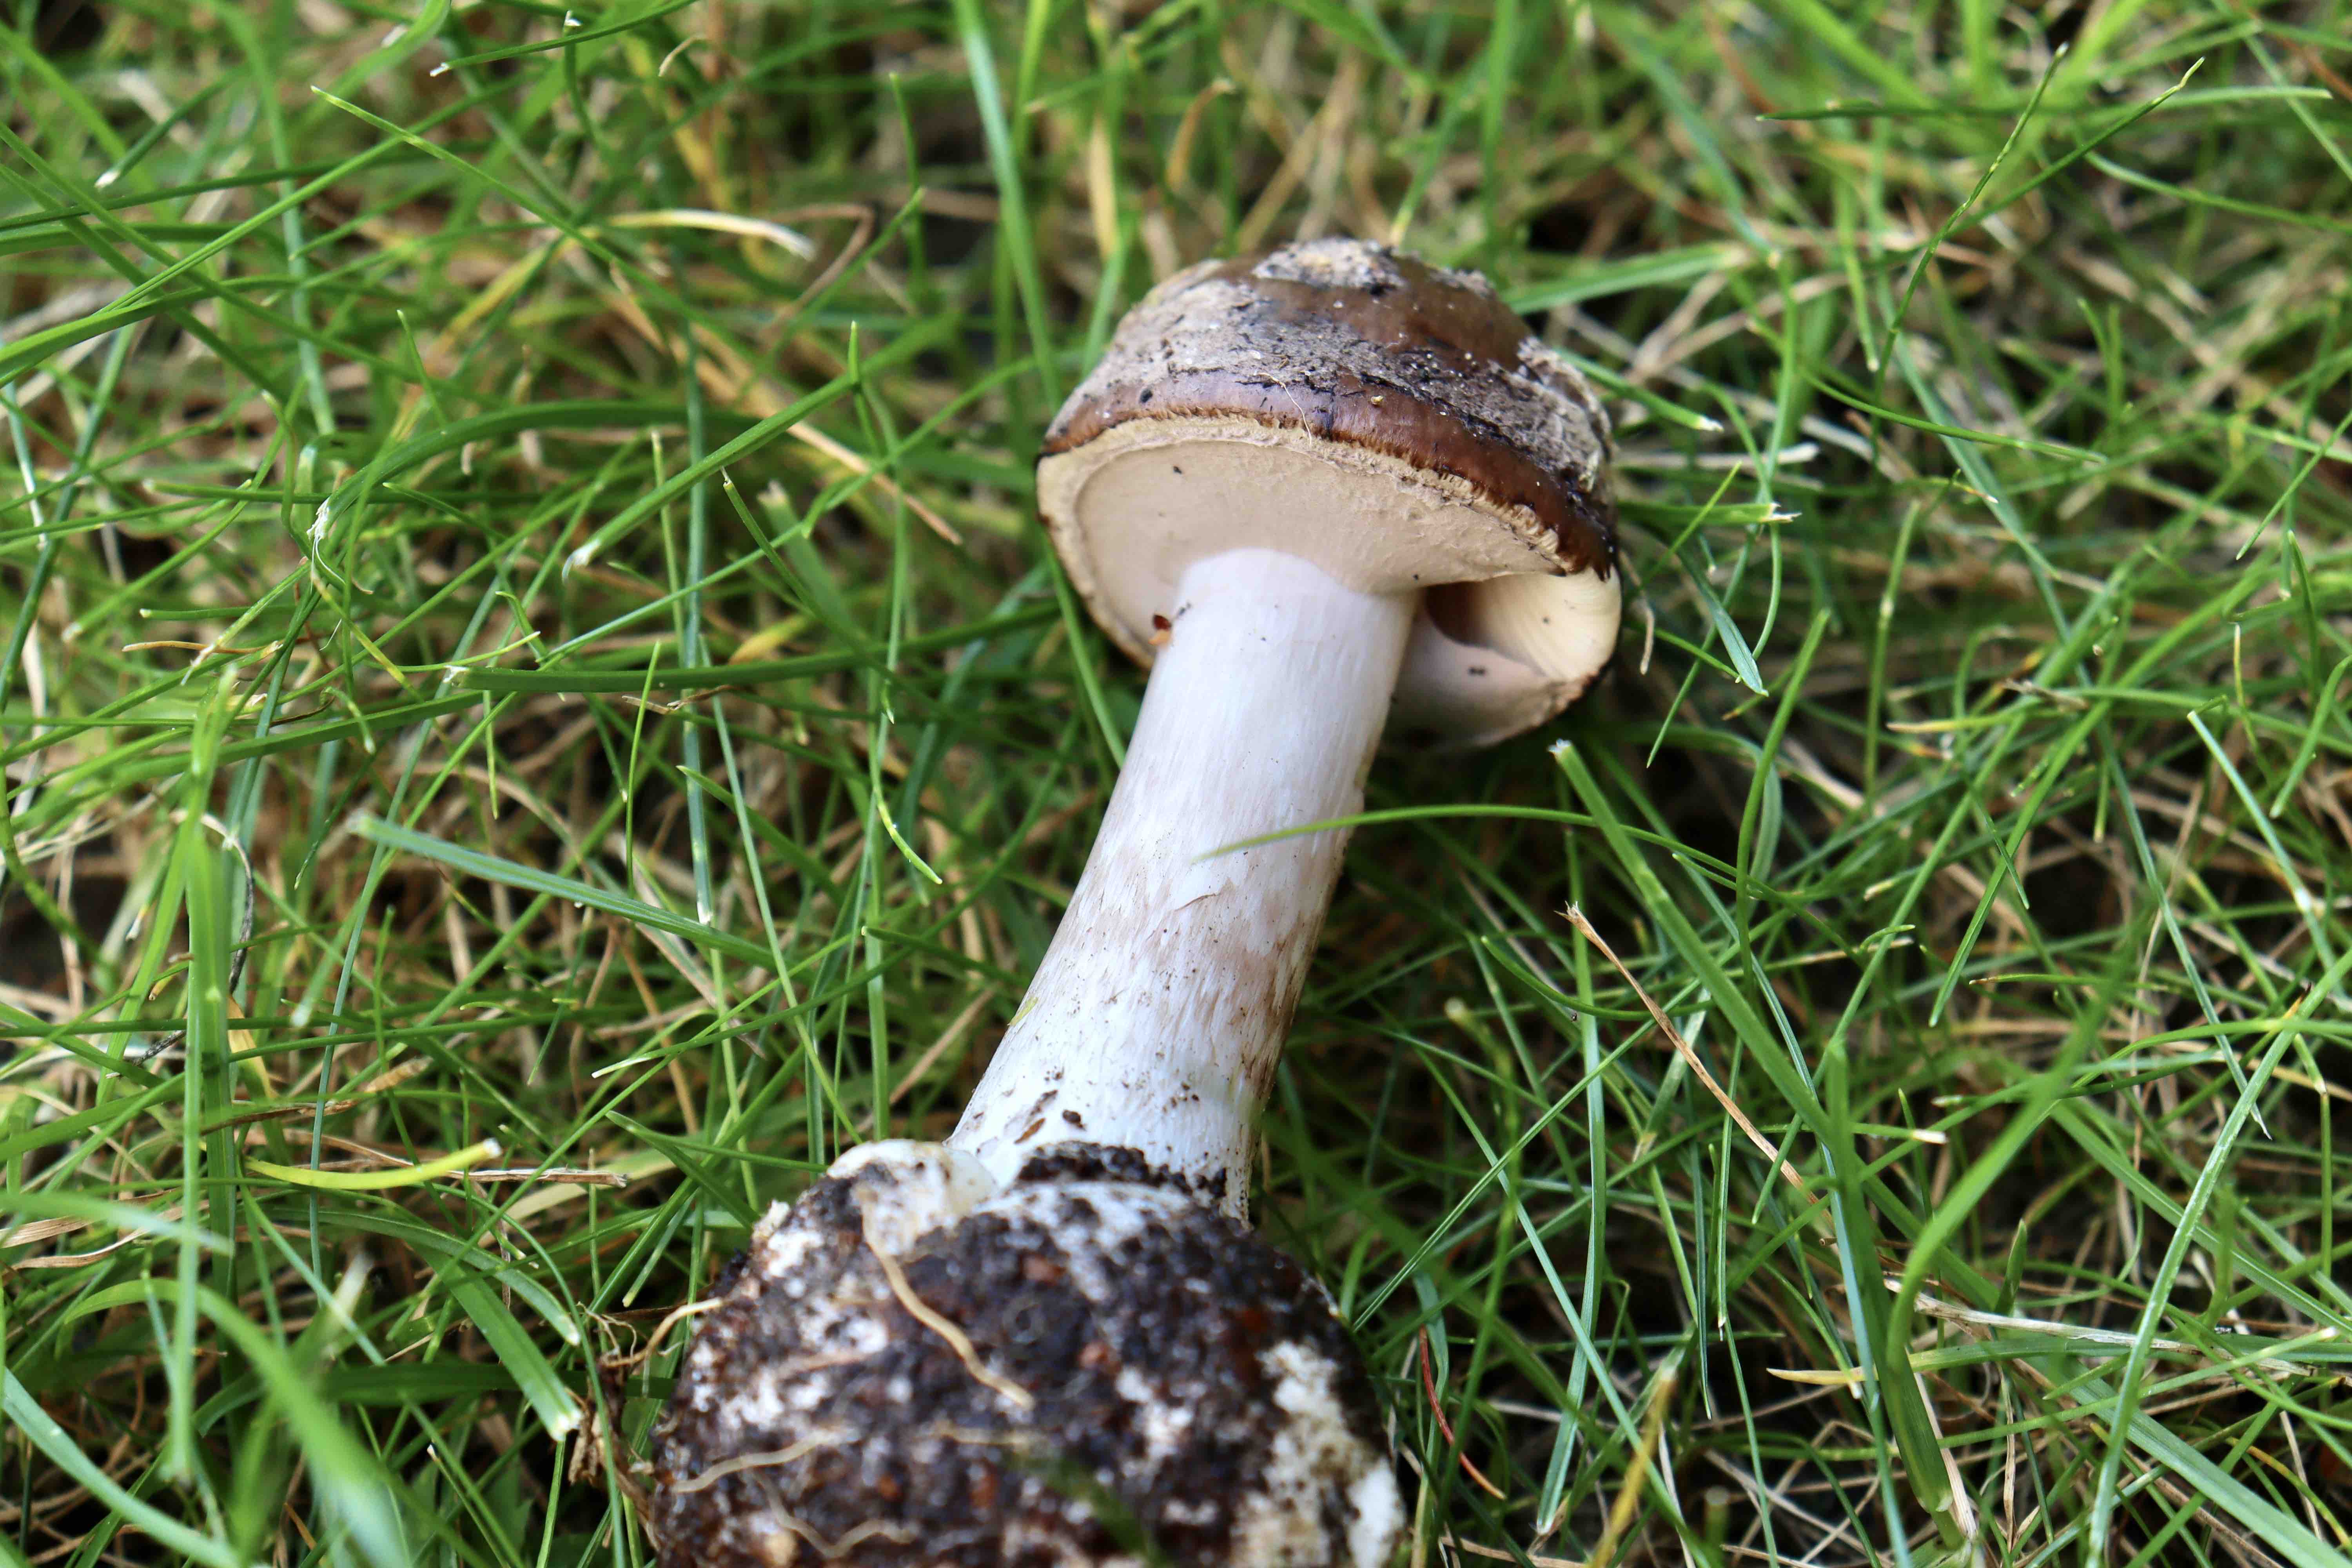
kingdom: Fungi
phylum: Basidiomycota
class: Agaricomycetes
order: Agaricales
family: Amanitaceae
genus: Amanita
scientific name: Amanita porphyria
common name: porfyr-fluesvamp
